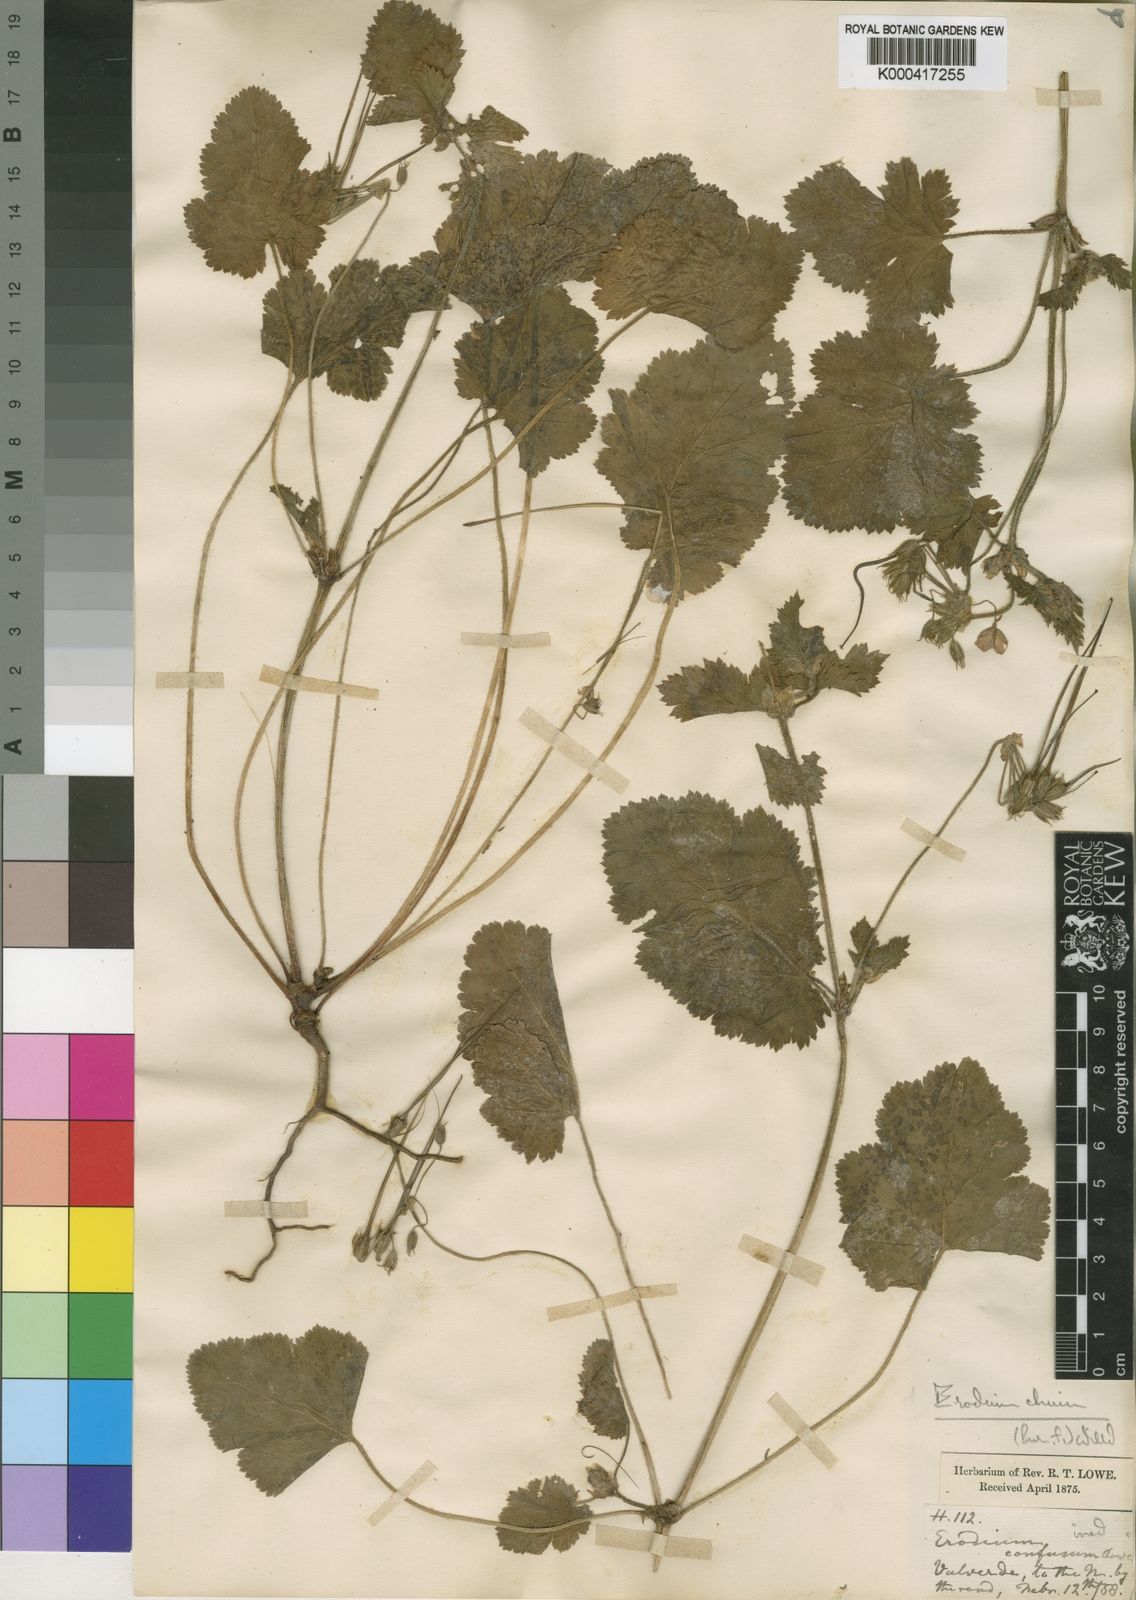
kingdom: Plantae
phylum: Tracheophyta
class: Magnoliopsida
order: Geraniales
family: Geraniaceae
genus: Erodium
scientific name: Erodium chium
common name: Three-lobed stork's-bill
